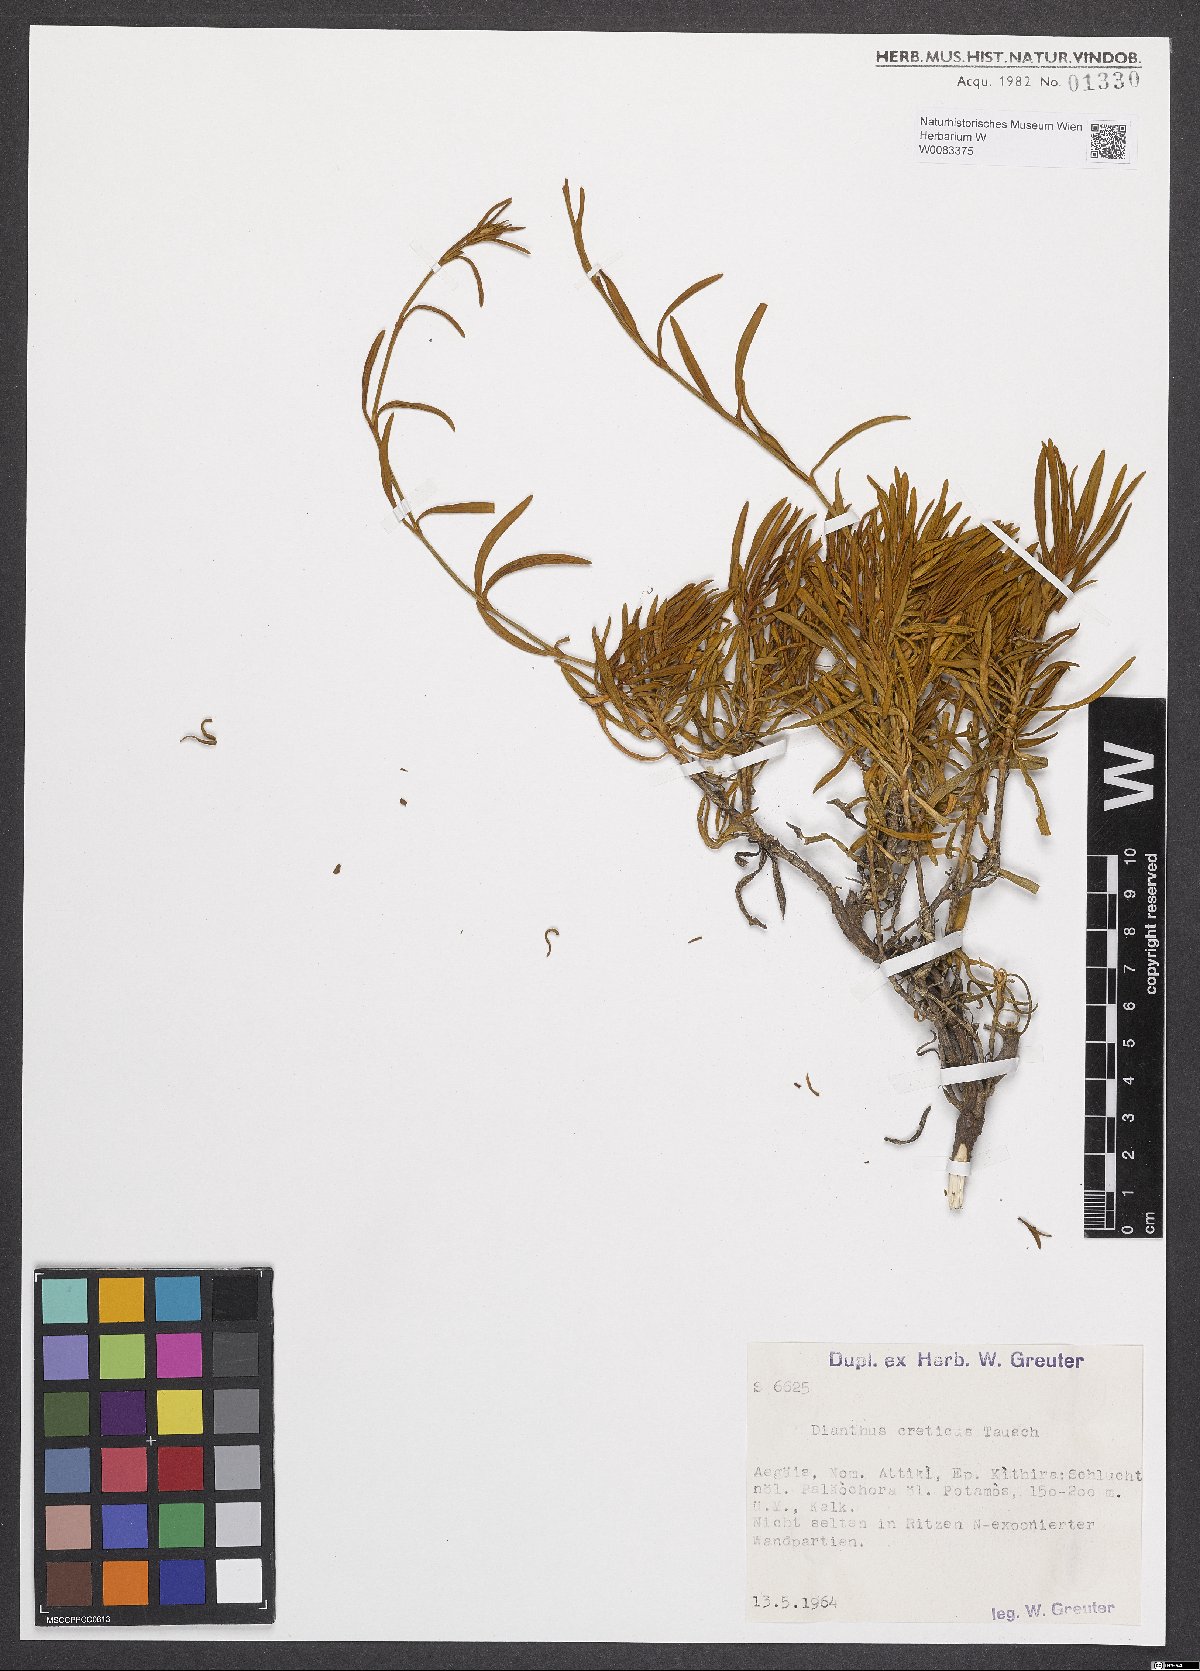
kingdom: Plantae
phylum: Tracheophyta
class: Magnoliopsida
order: Caryophyllales
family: Caryophyllaceae
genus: Dianthus
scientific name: Dianthus fruticosus
